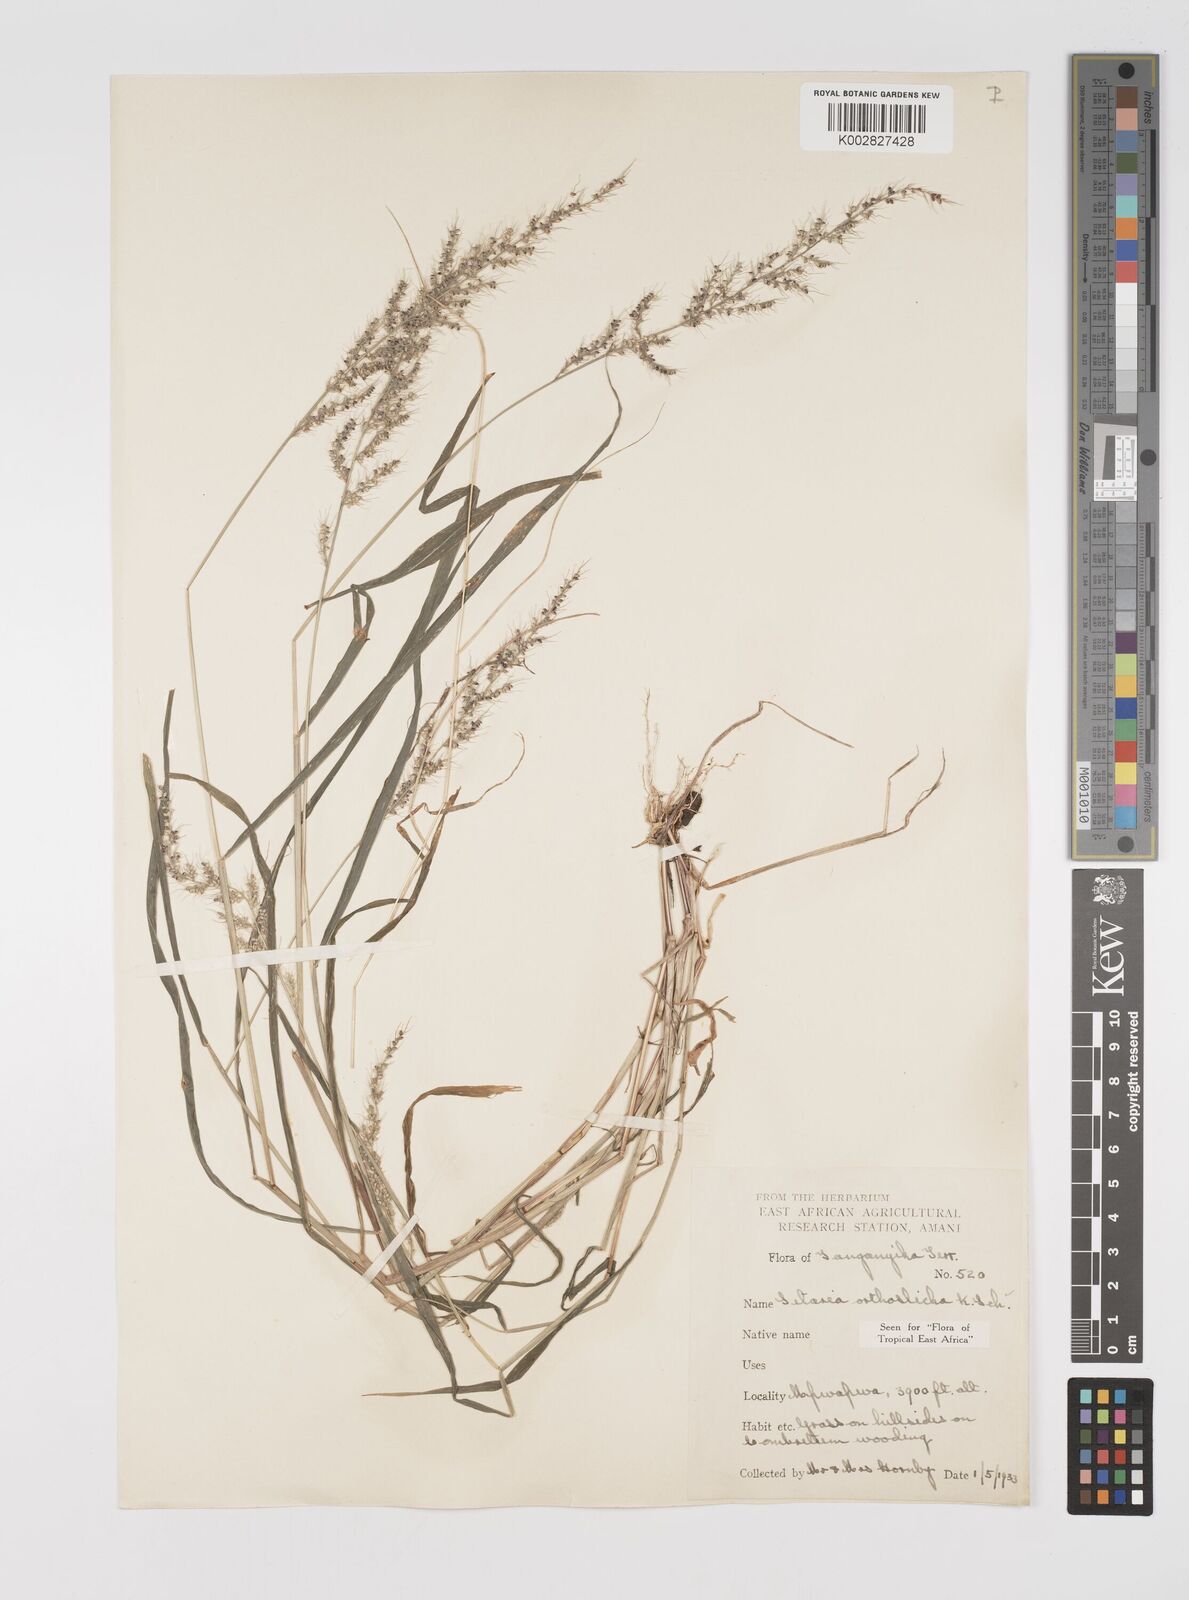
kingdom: Plantae
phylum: Tracheophyta
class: Liliopsida
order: Poales
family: Poaceae
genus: Setaria
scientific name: Setaria orthosticha
